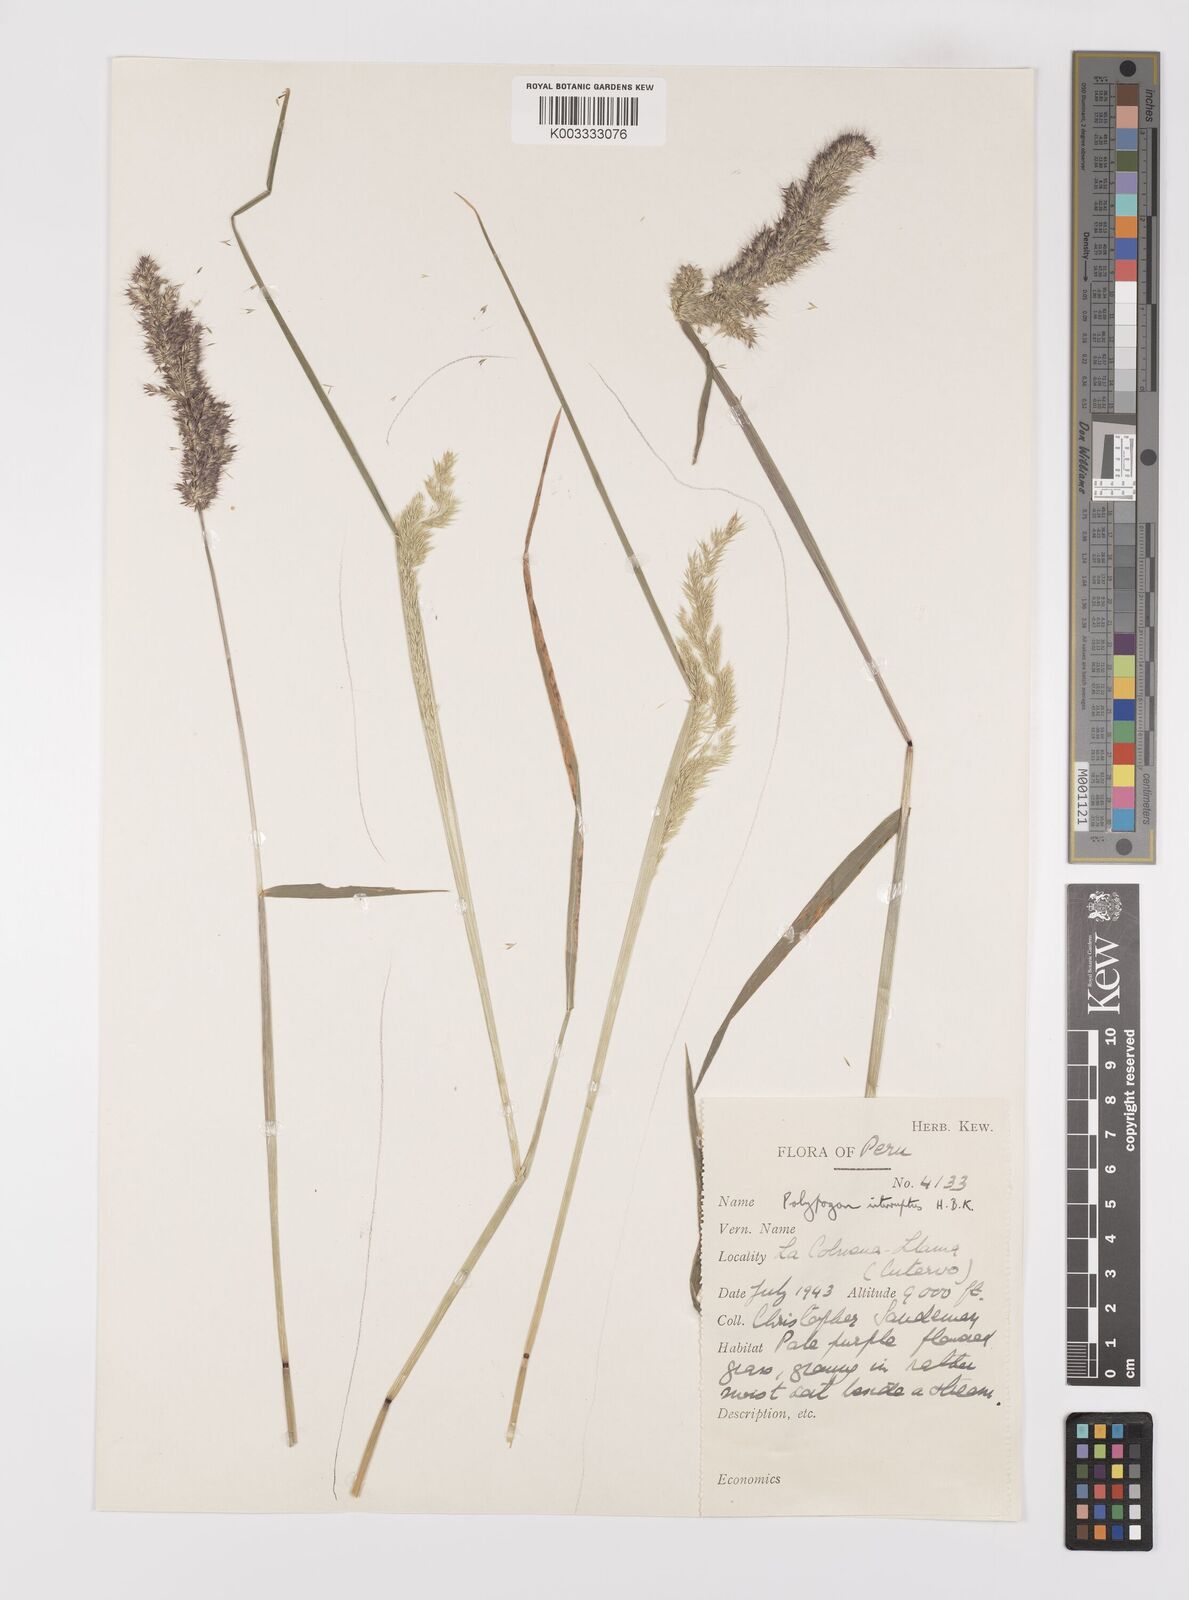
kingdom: Plantae
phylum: Tracheophyta
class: Liliopsida
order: Poales
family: Poaceae
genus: Polypogon
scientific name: Polypogon interruptus
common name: Ditch polypogon
